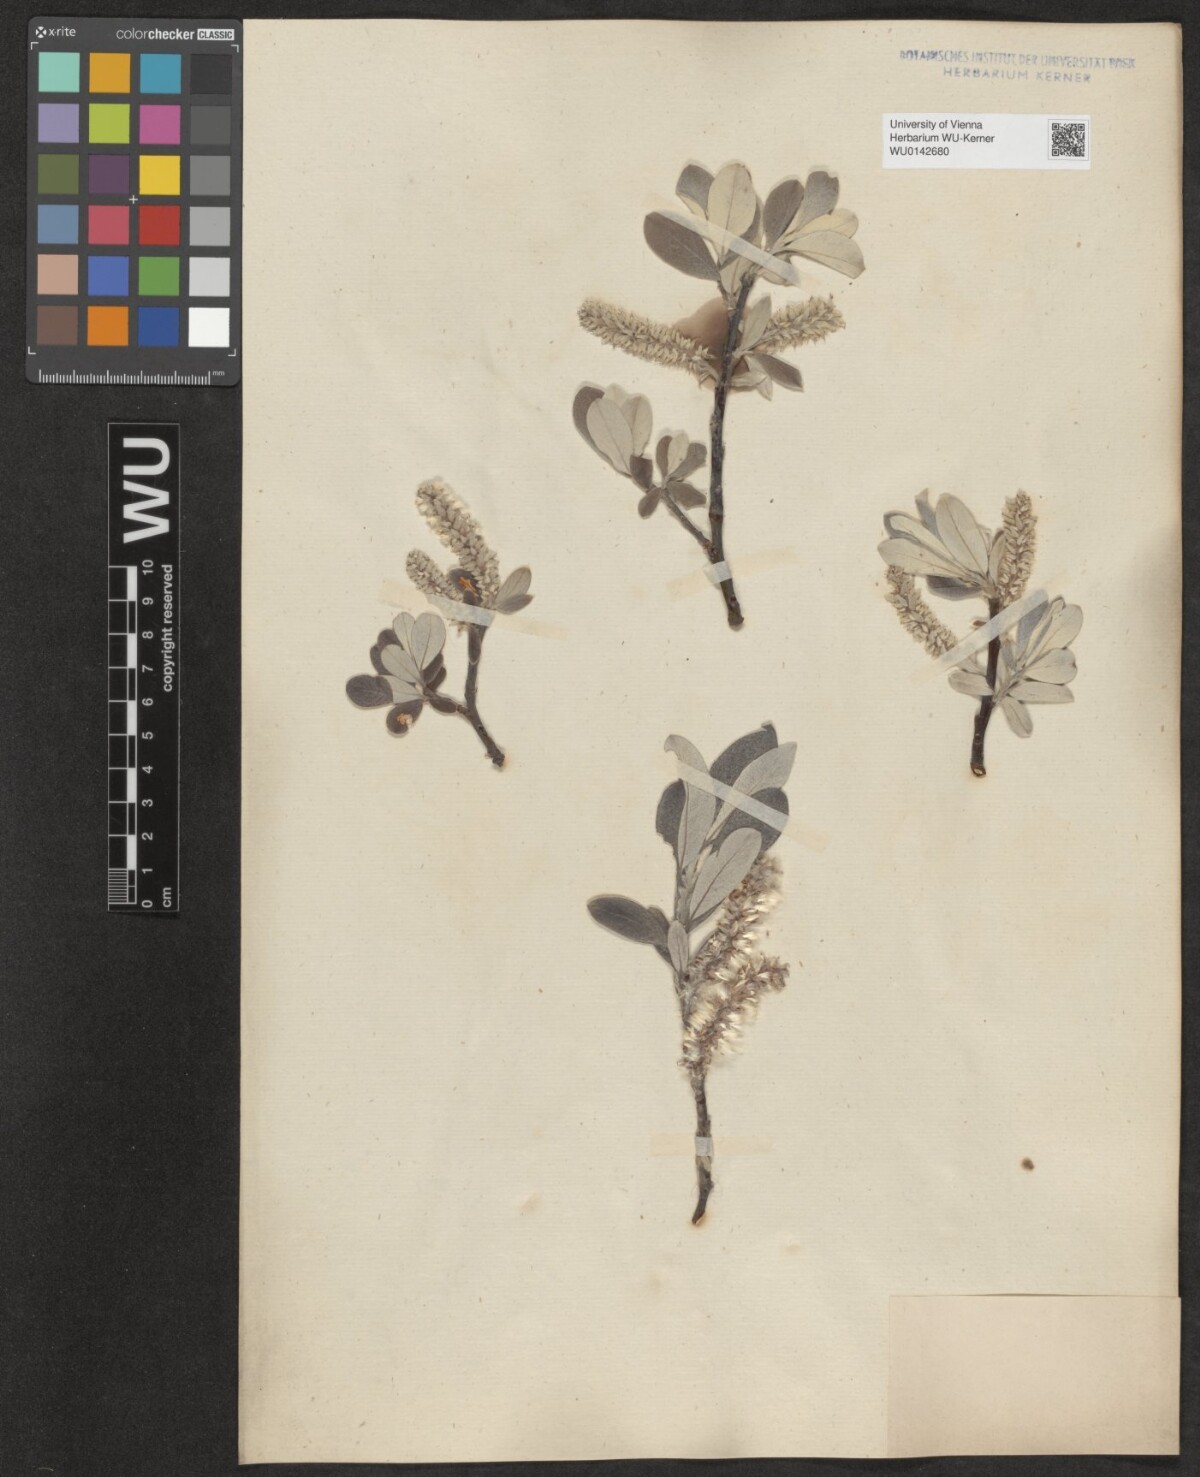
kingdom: Plantae
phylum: Tracheophyta
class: Magnoliopsida
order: Malpighiales
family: Salicaceae
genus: Salix
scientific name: Salix helvetica
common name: Swiss willow
